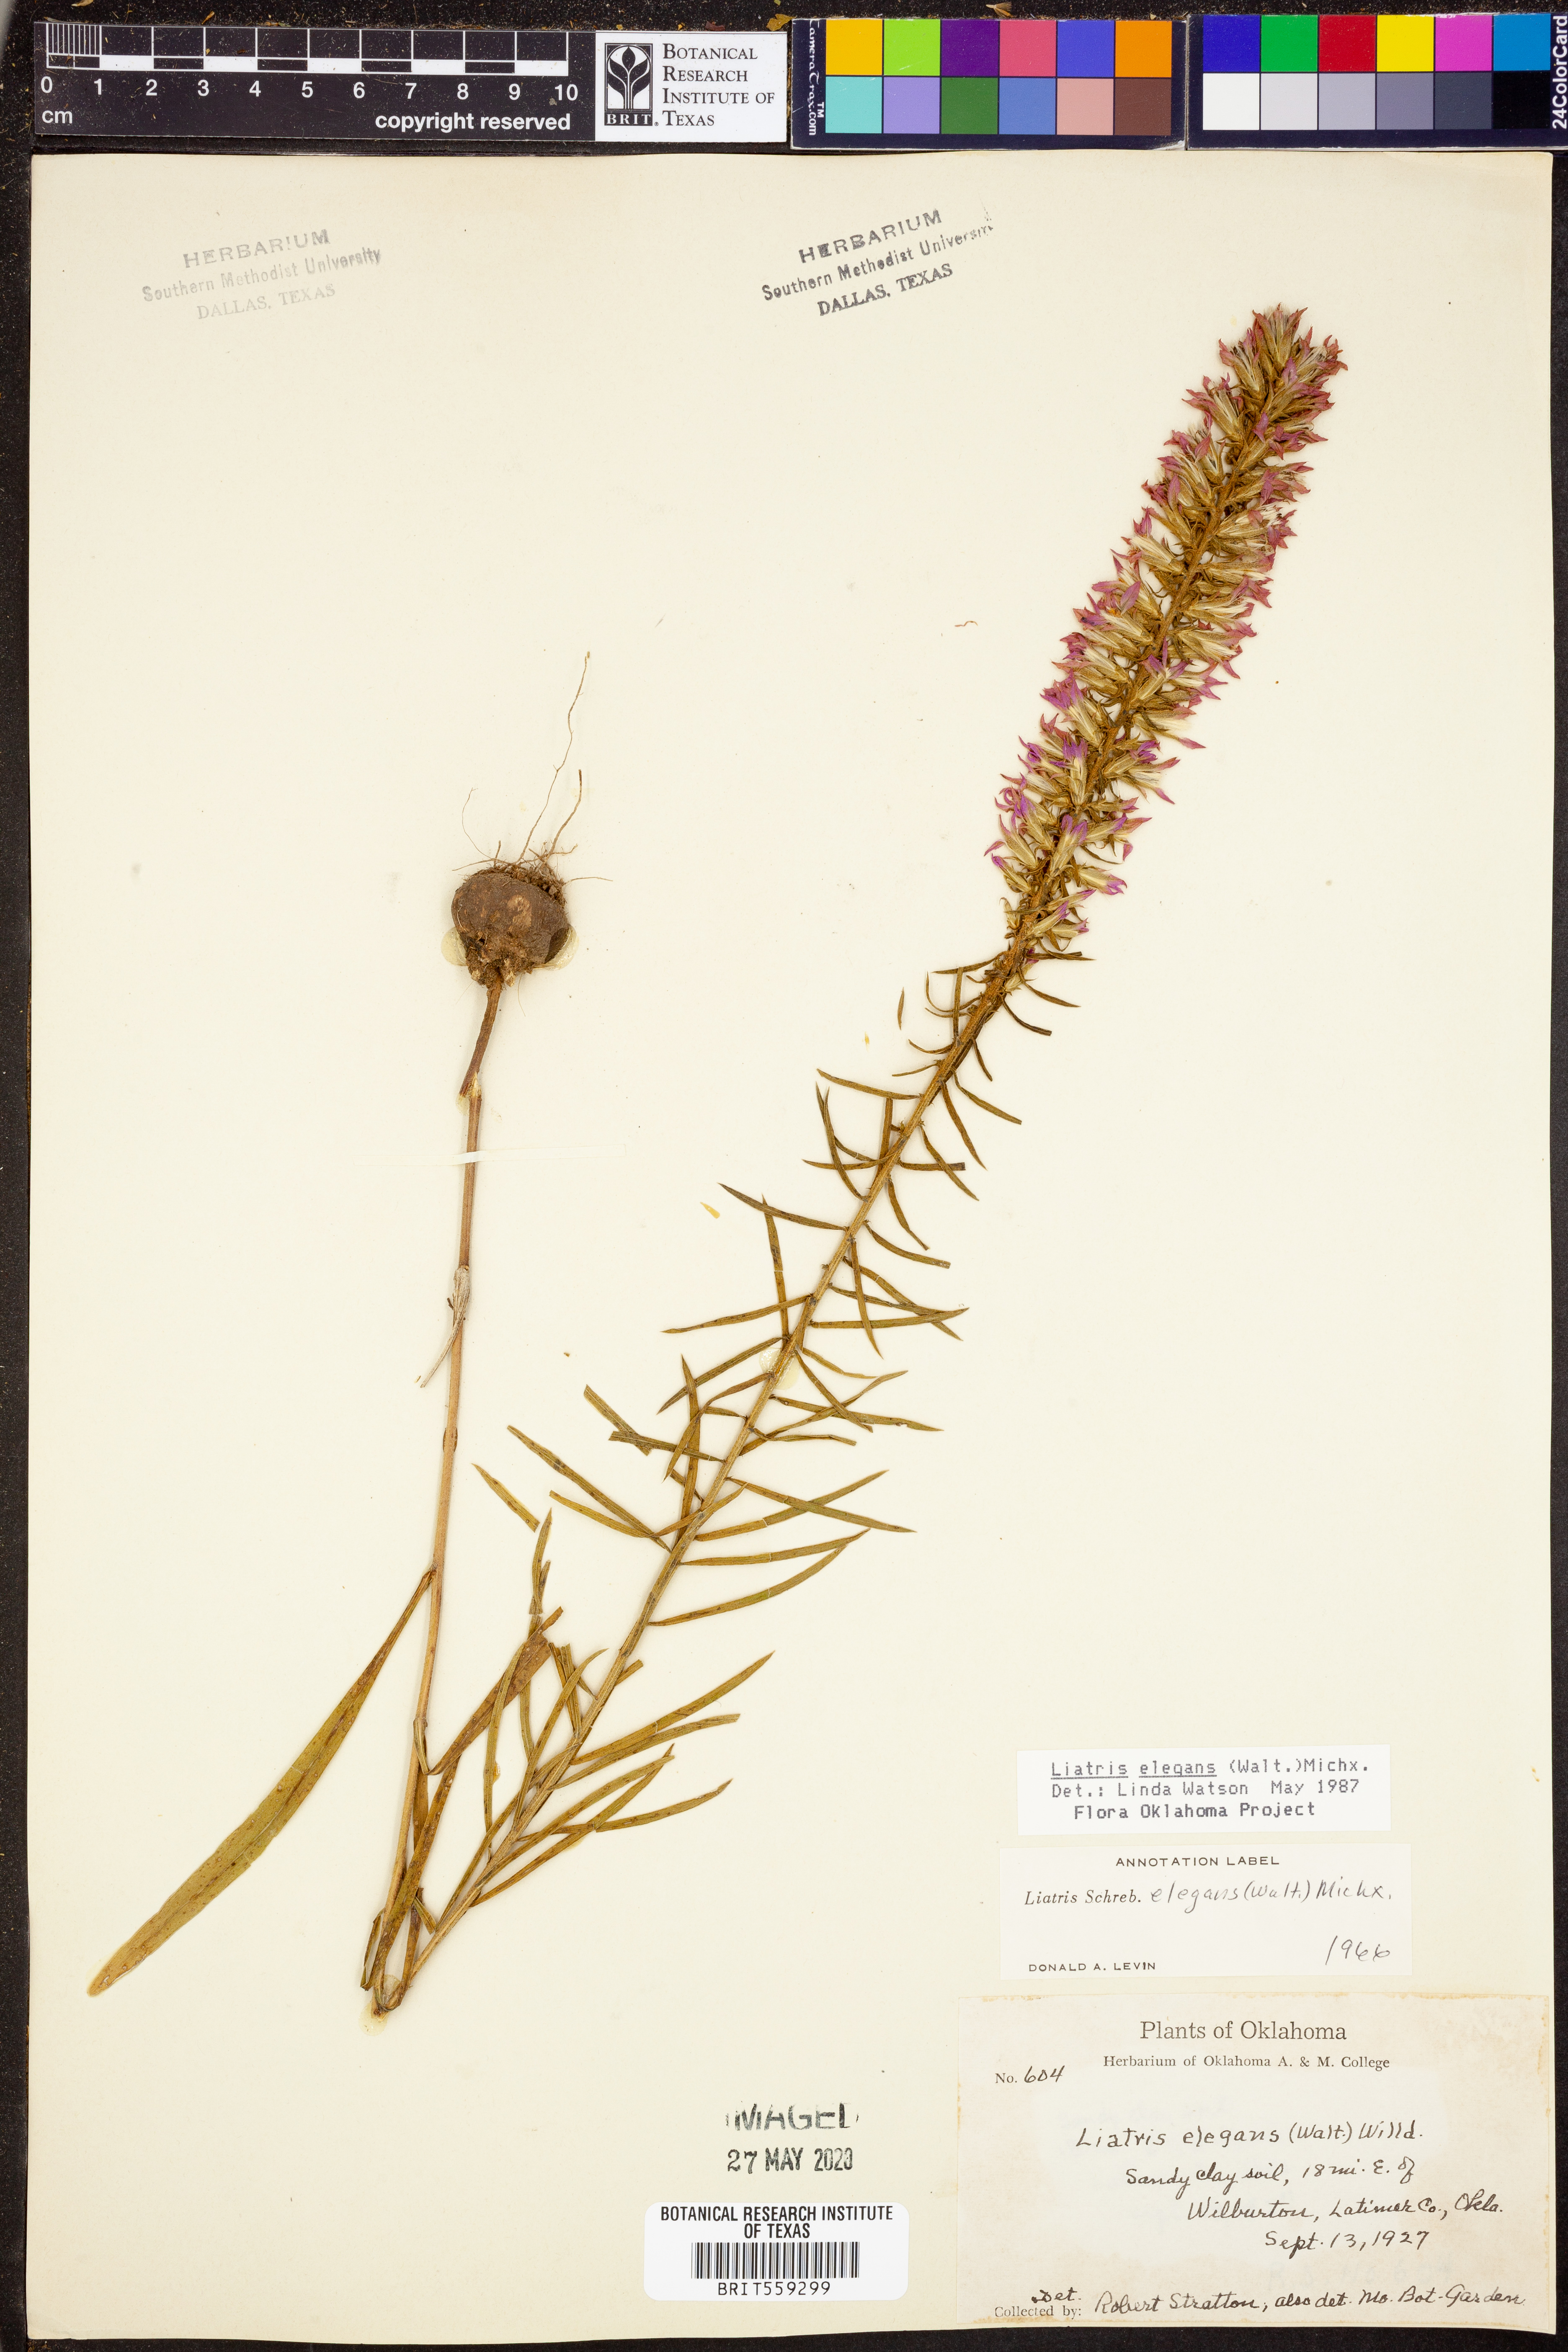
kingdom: Plantae
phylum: Tracheophyta
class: Magnoliopsida
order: Asterales
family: Asteraceae
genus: Liatris
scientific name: Liatris elegans
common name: Pinkscale gayfeather
